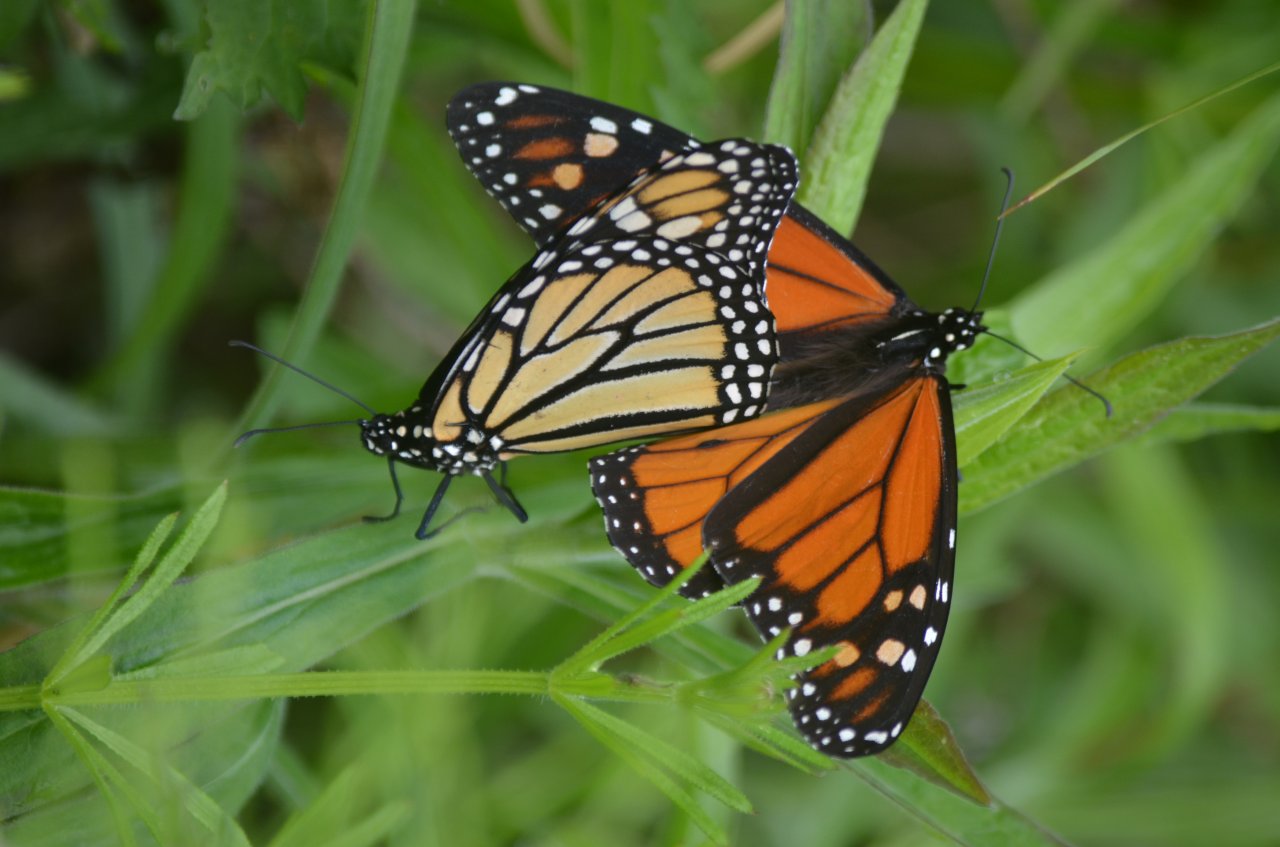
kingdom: Animalia
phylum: Arthropoda
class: Insecta
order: Lepidoptera
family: Nymphalidae
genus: Danaus
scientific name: Danaus plexippus
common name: Monarch
